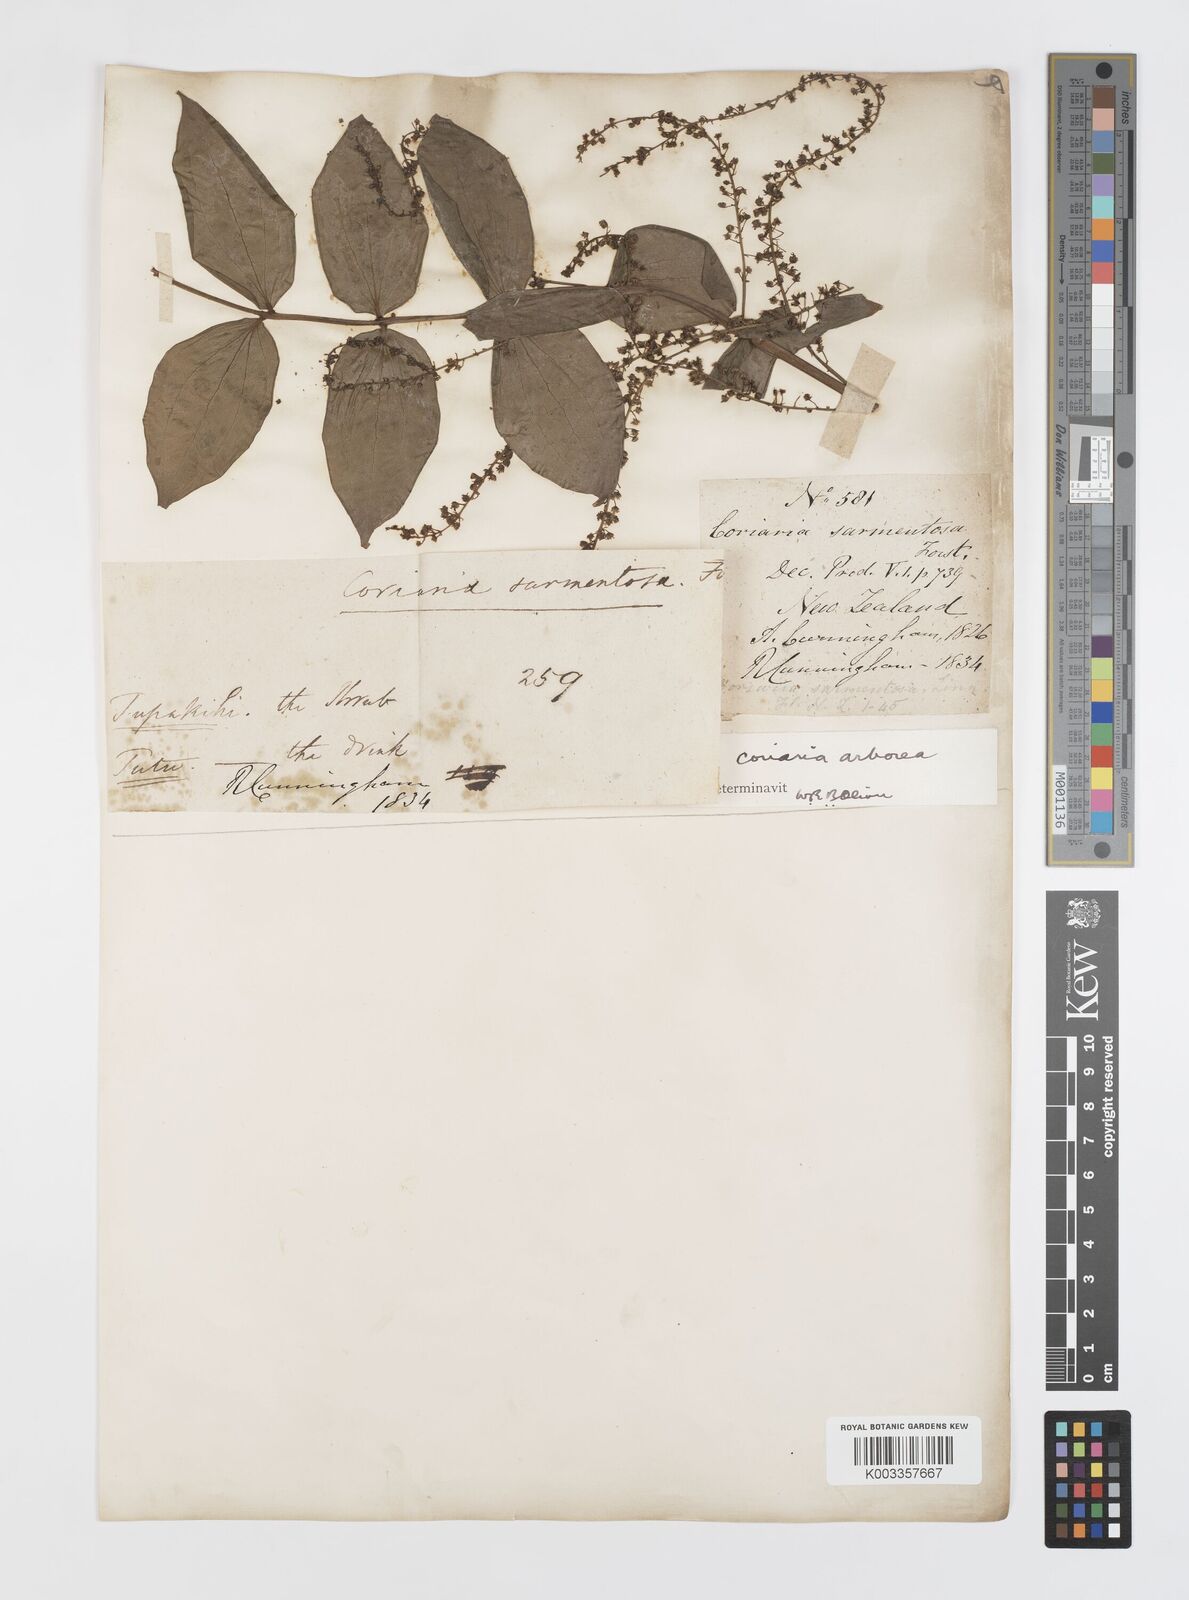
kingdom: Plantae
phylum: Tracheophyta
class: Magnoliopsida
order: Cucurbitales
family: Coriariaceae
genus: Coriaria
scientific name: Coriaria ruscifolia
